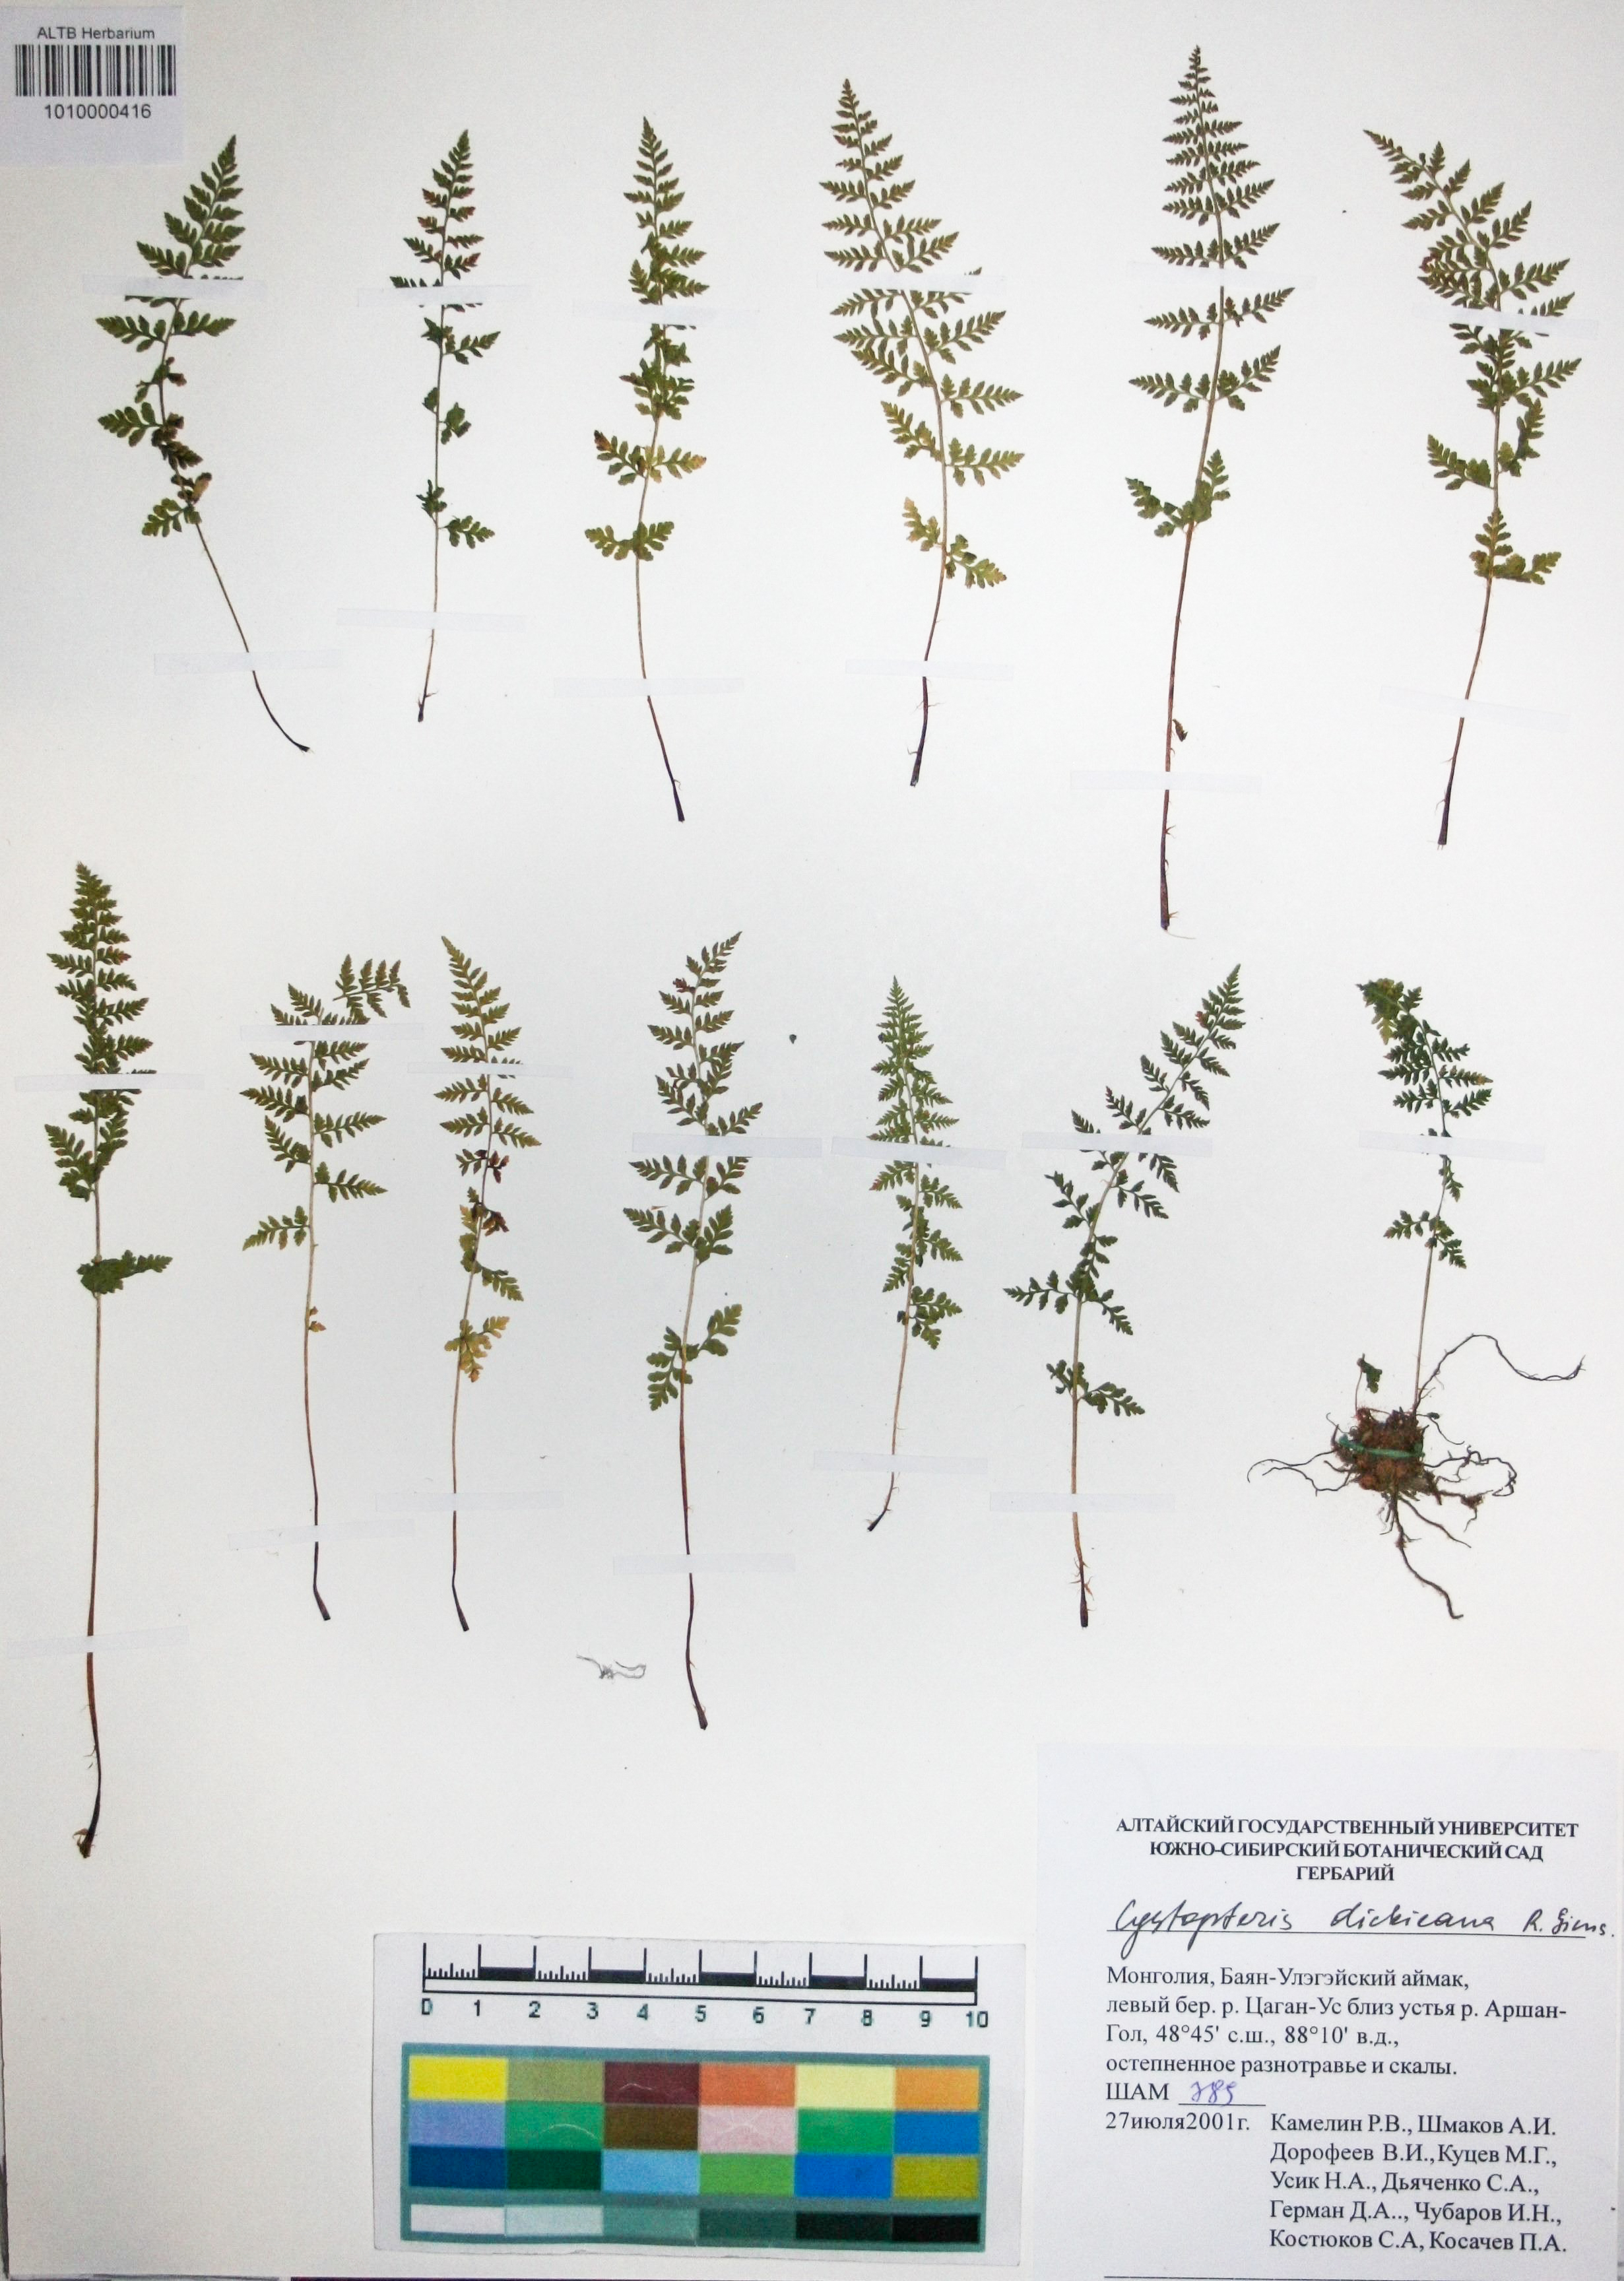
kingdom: Plantae
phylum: Tracheophyta
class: Polypodiopsida
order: Polypodiales
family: Cystopteridaceae
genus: Cystopteris
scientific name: Cystopteris dickieana
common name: Dickie's bladder-fern
